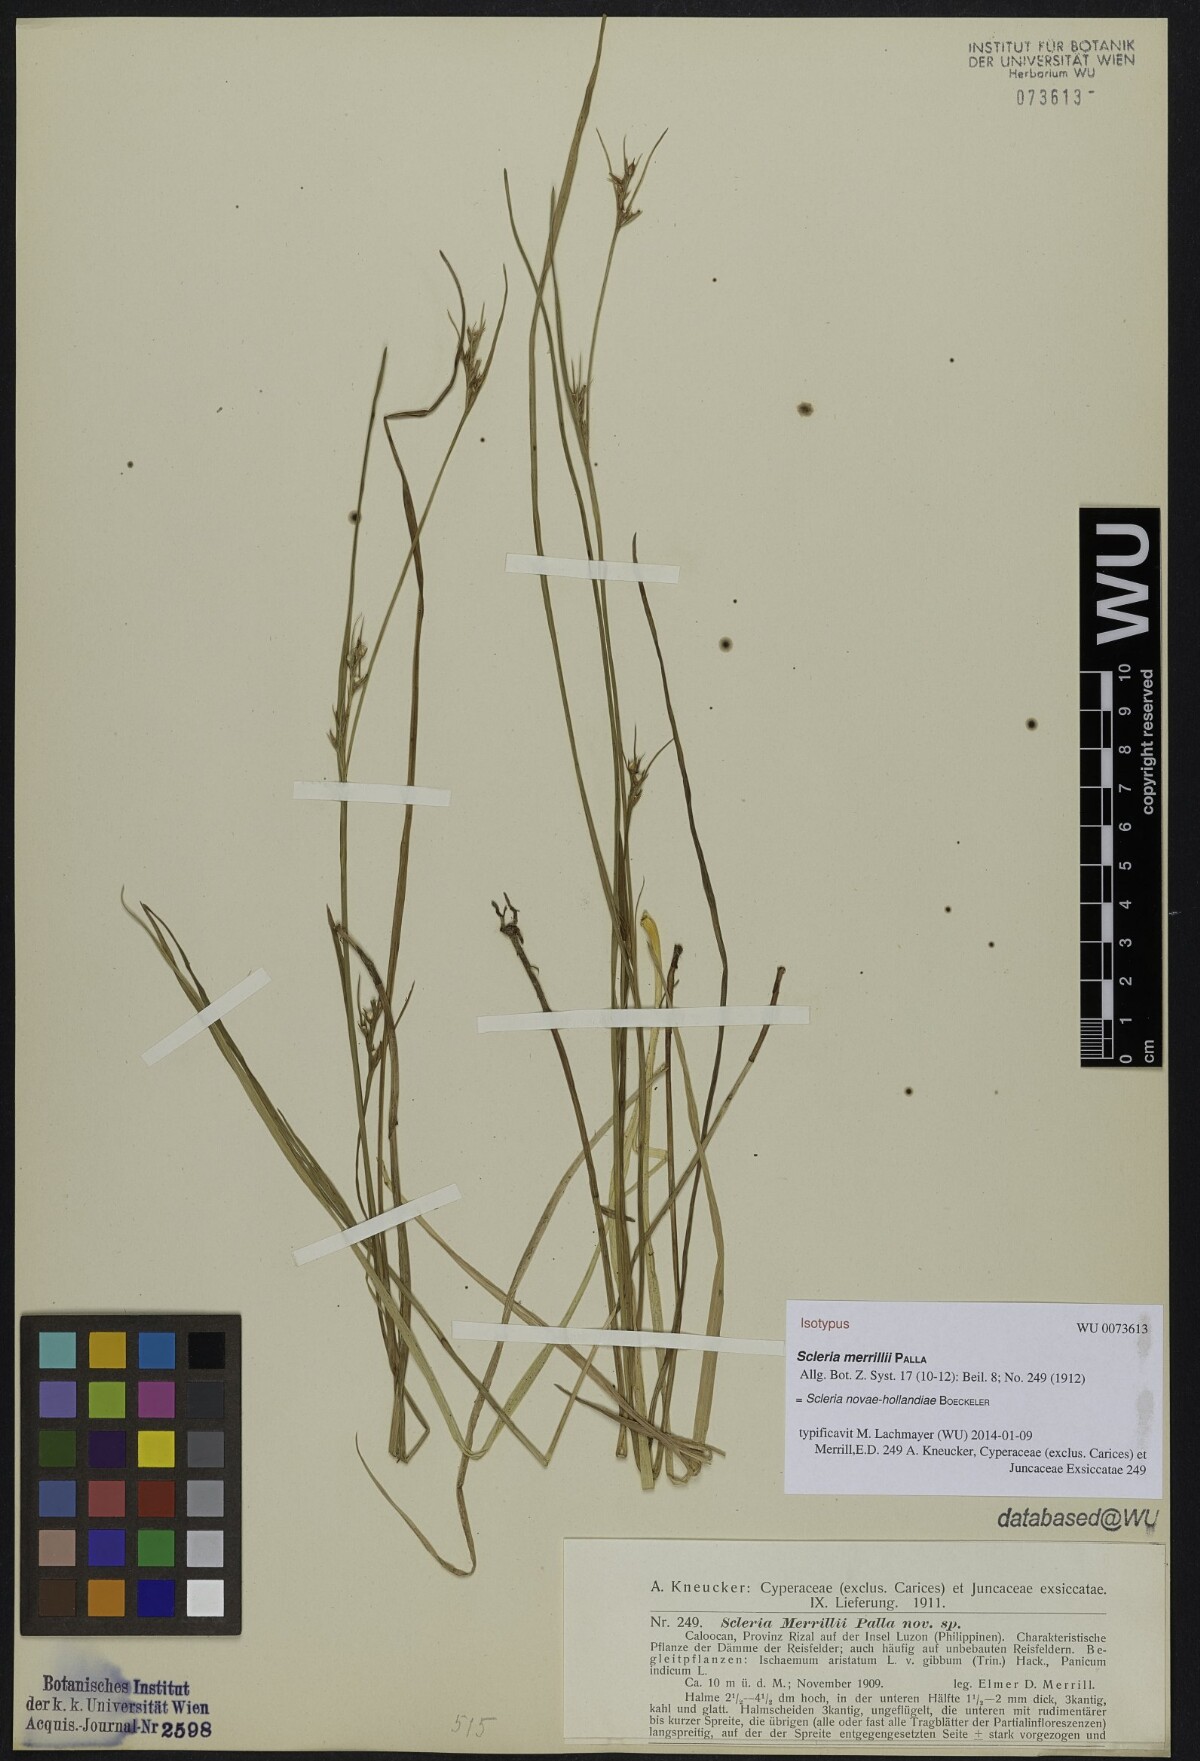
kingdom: Plantae
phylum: Tracheophyta
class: Liliopsida
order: Poales
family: Cyperaceae
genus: Scleria
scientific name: Scleria novae-hollandiae
